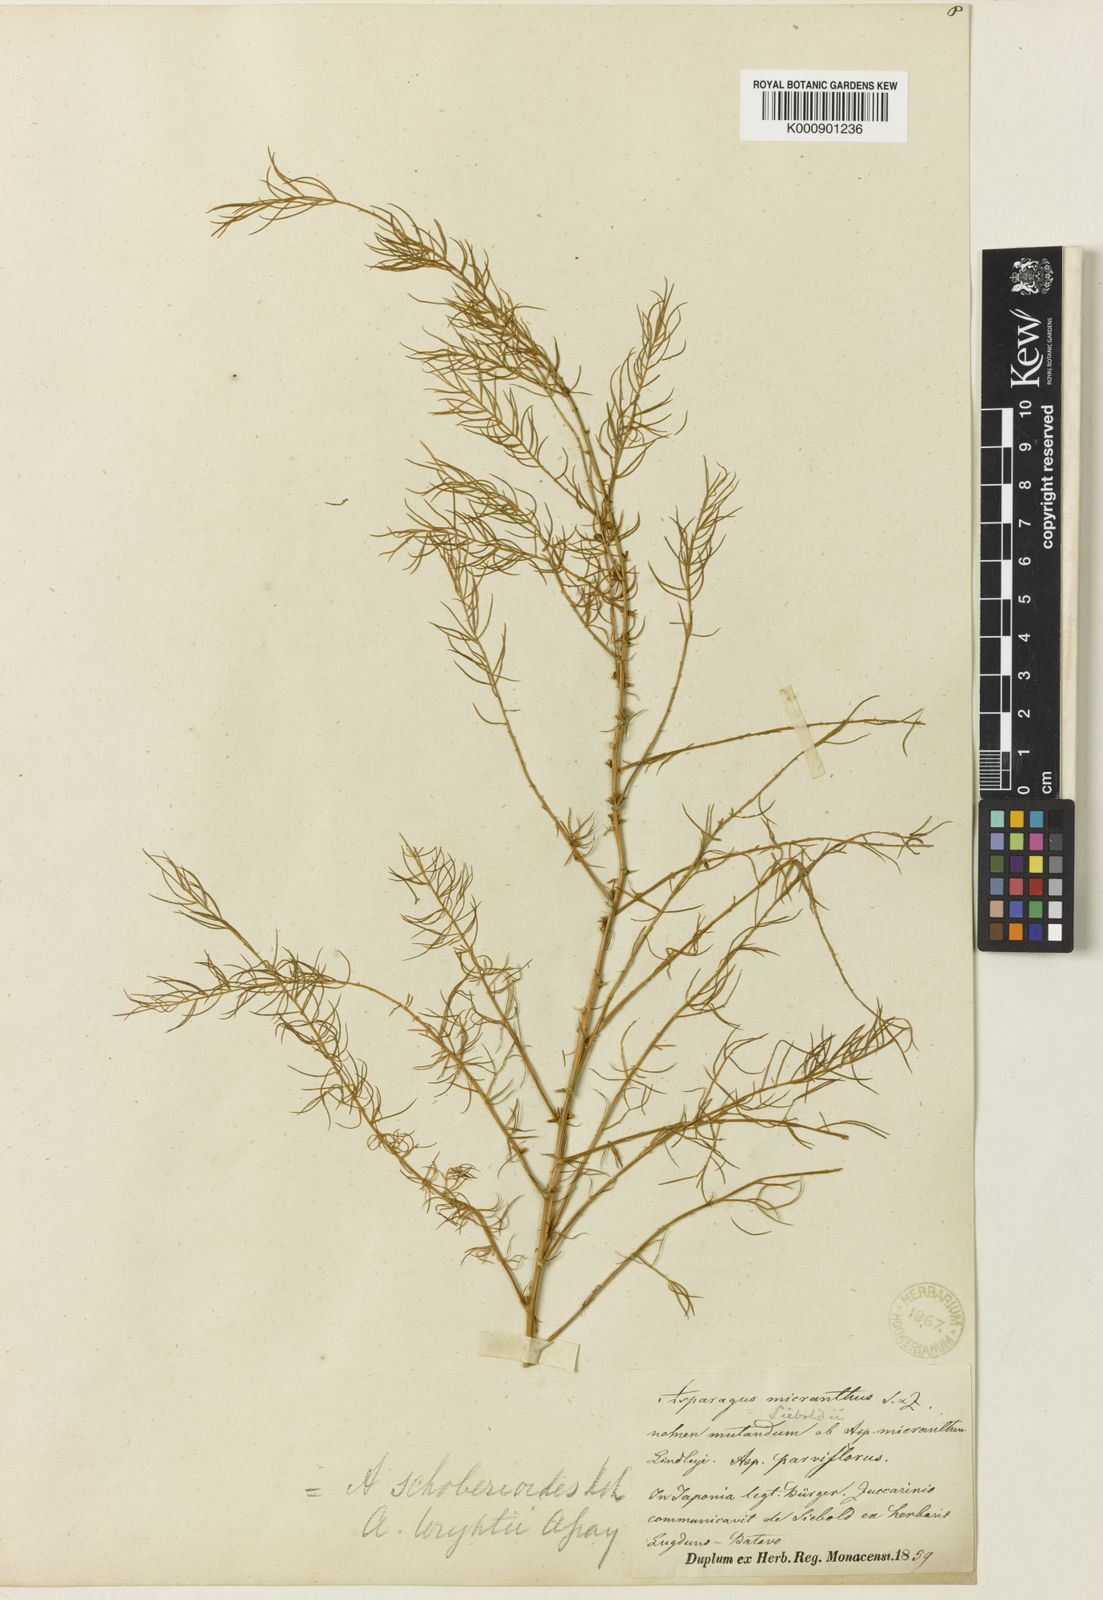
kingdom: Plantae
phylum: Tracheophyta
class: Liliopsida
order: Asparagales
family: Asparagaceae
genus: Asparagus
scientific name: Asparagus schoberioides
